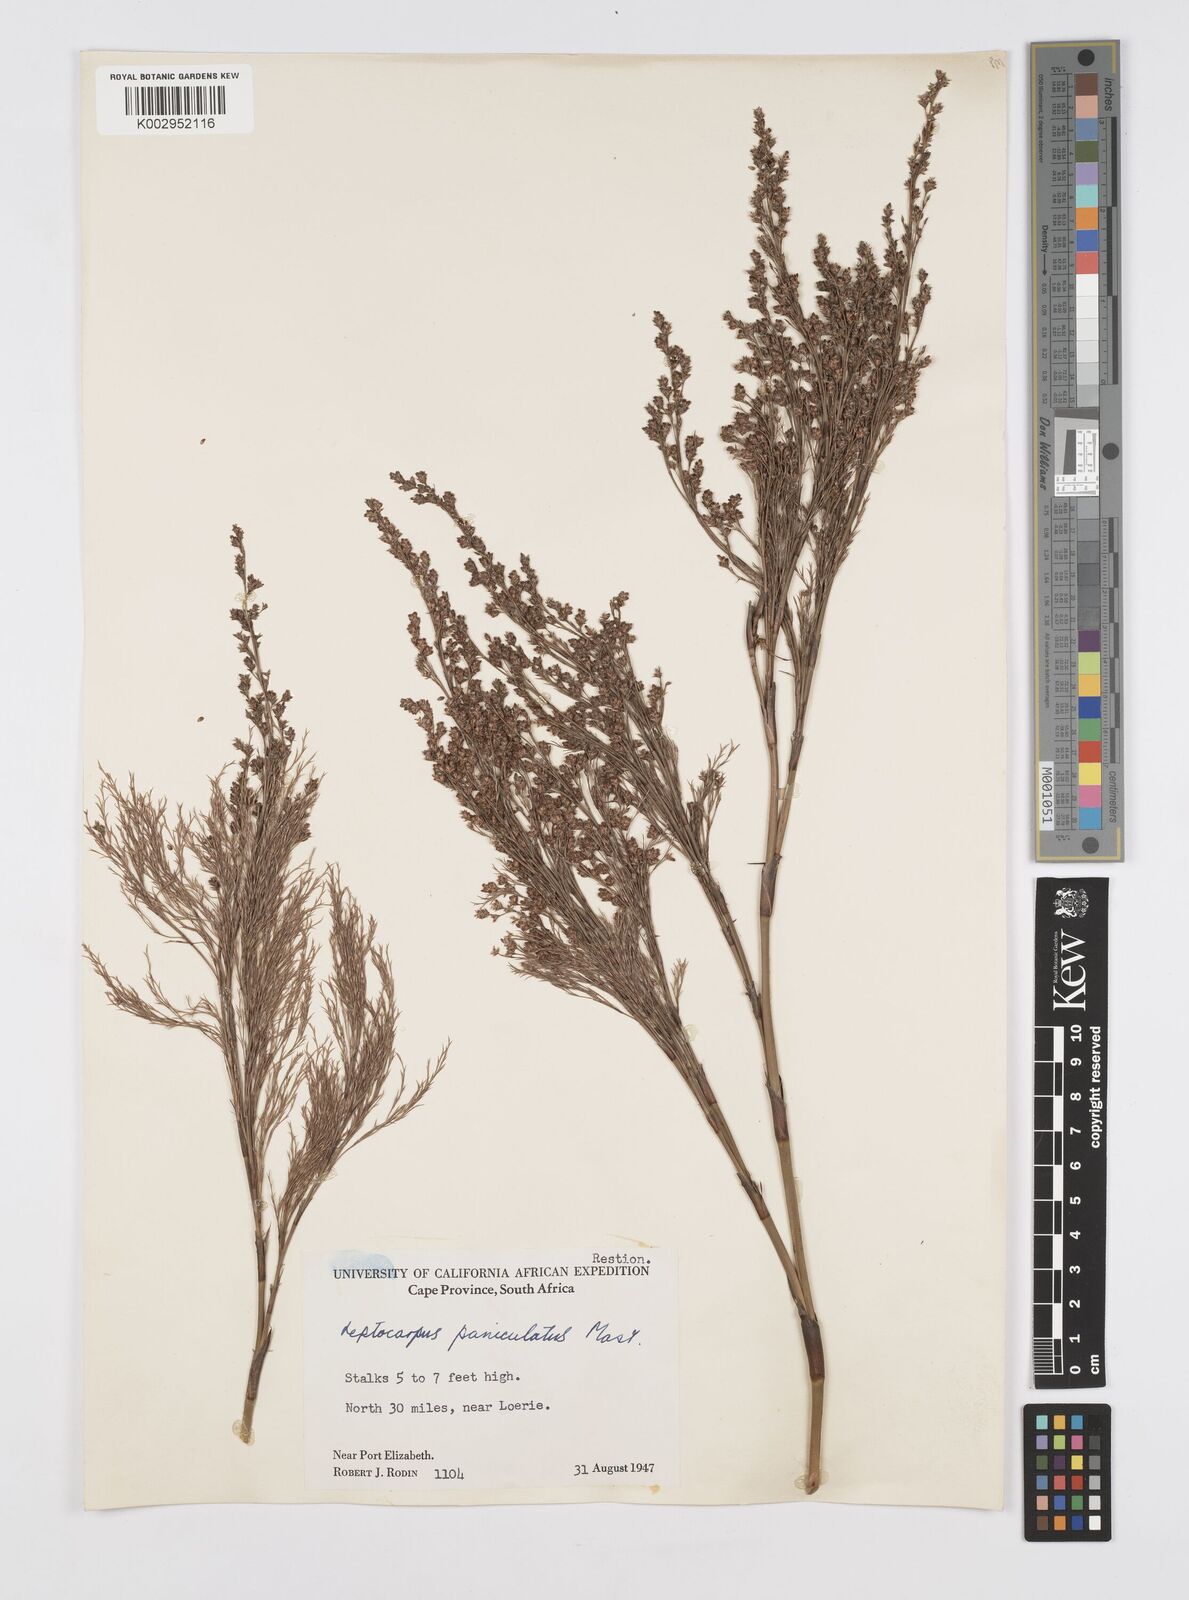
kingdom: Plantae
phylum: Tracheophyta
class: Liliopsida
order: Poales
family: Restionaceae
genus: Restio
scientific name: Restio paniculatus
